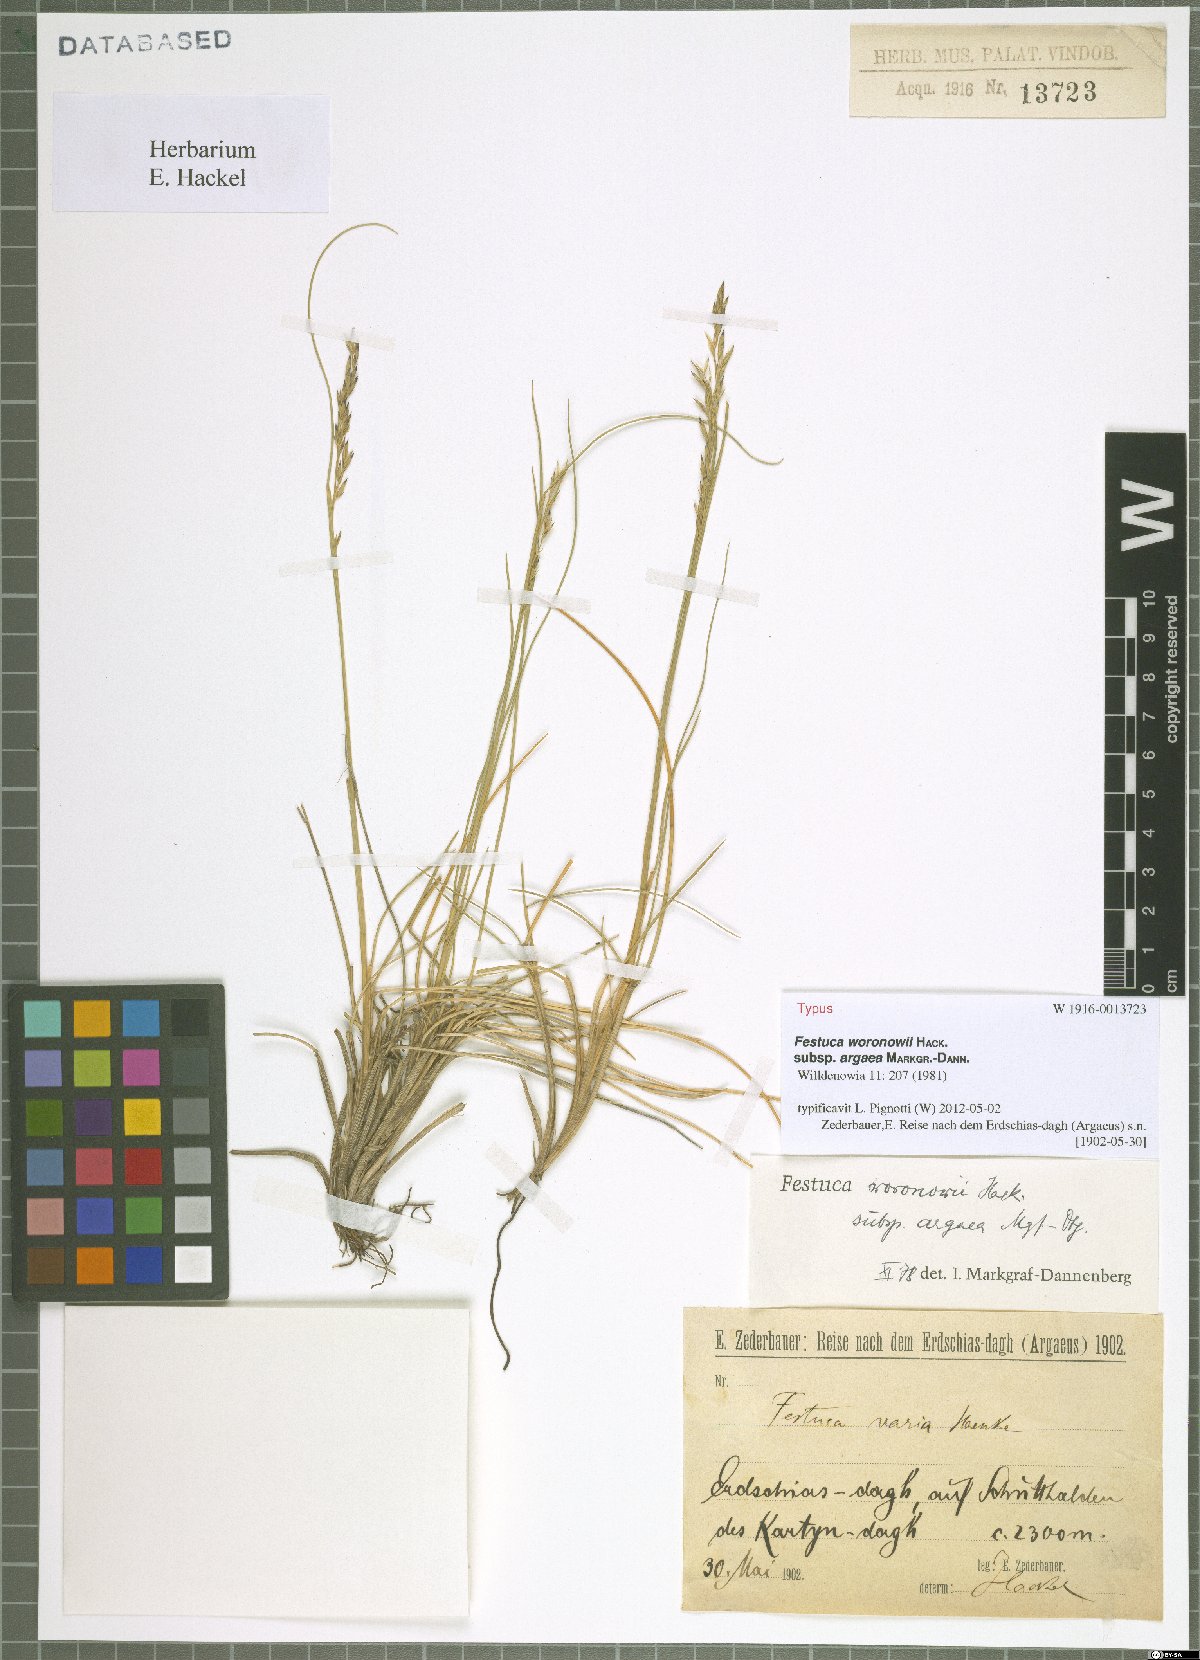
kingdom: Plantae
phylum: Tracheophyta
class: Liliopsida
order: Poales
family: Poaceae
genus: Festuca
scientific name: Festuca varia
